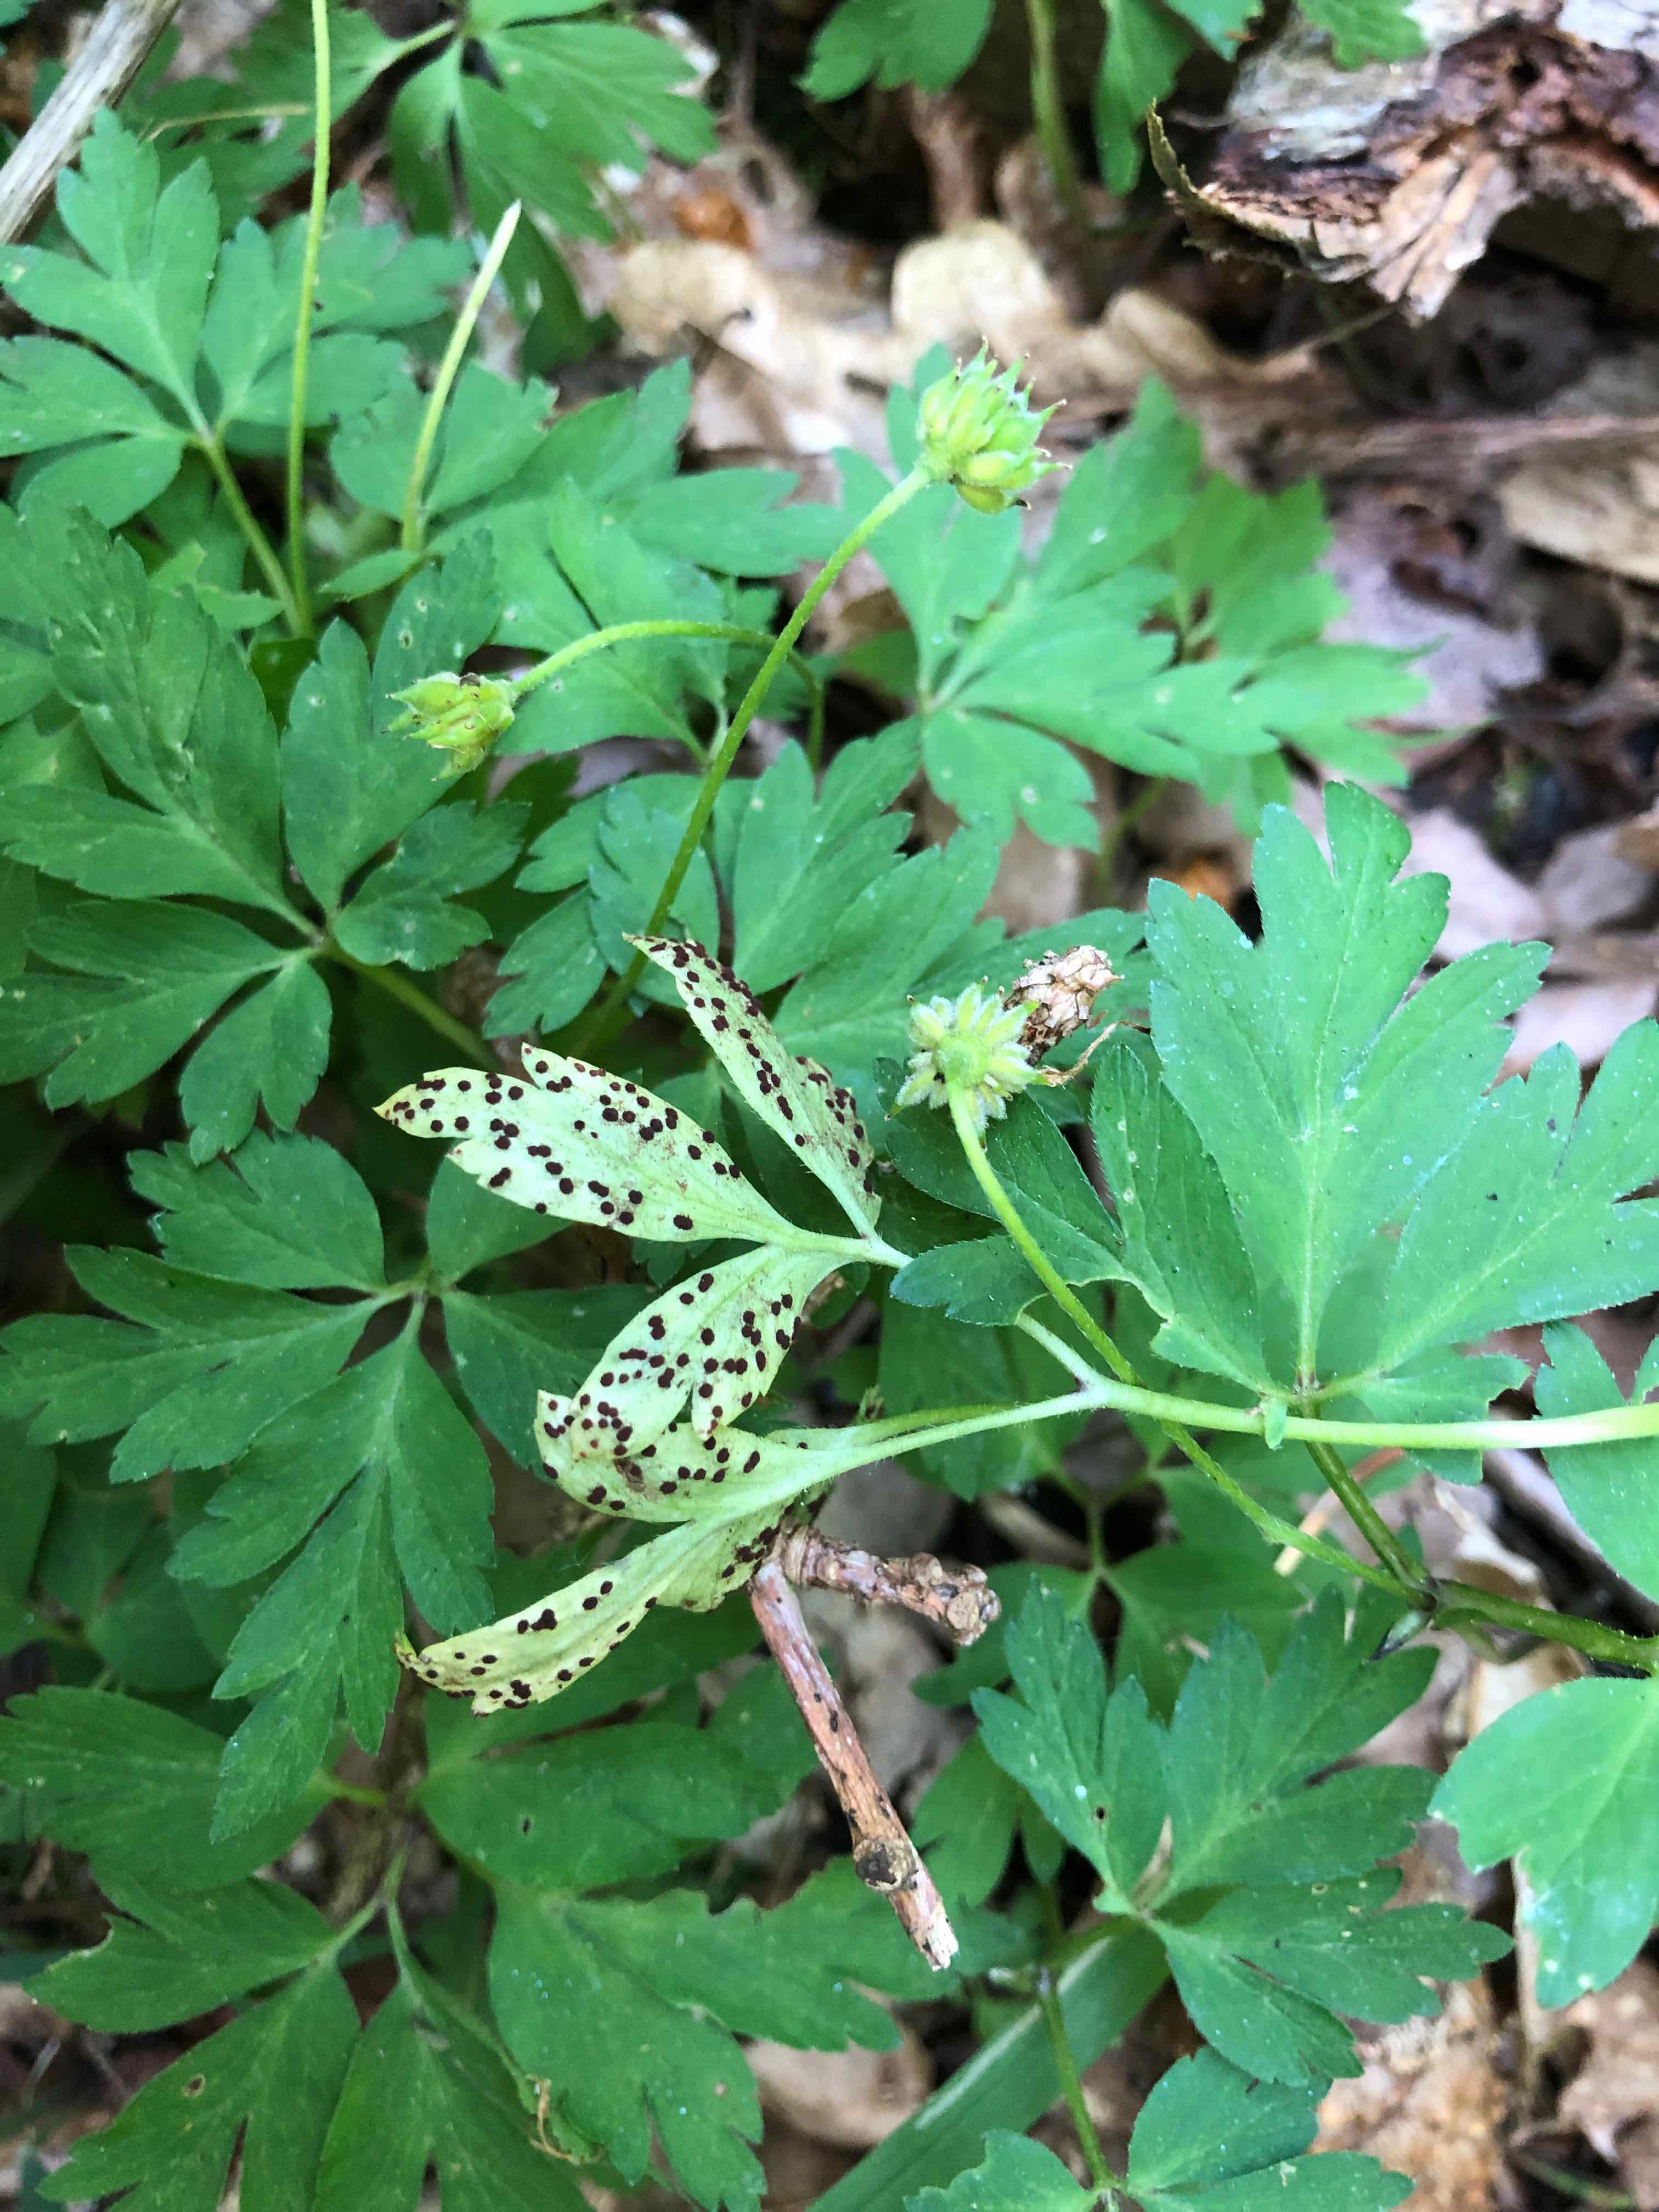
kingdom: Fungi
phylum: Basidiomycota
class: Pucciniomycetes
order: Pucciniales
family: Tranzscheliaceae
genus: Tranzschelia
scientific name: Tranzschelia anemones
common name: anemone-knæksporerust
